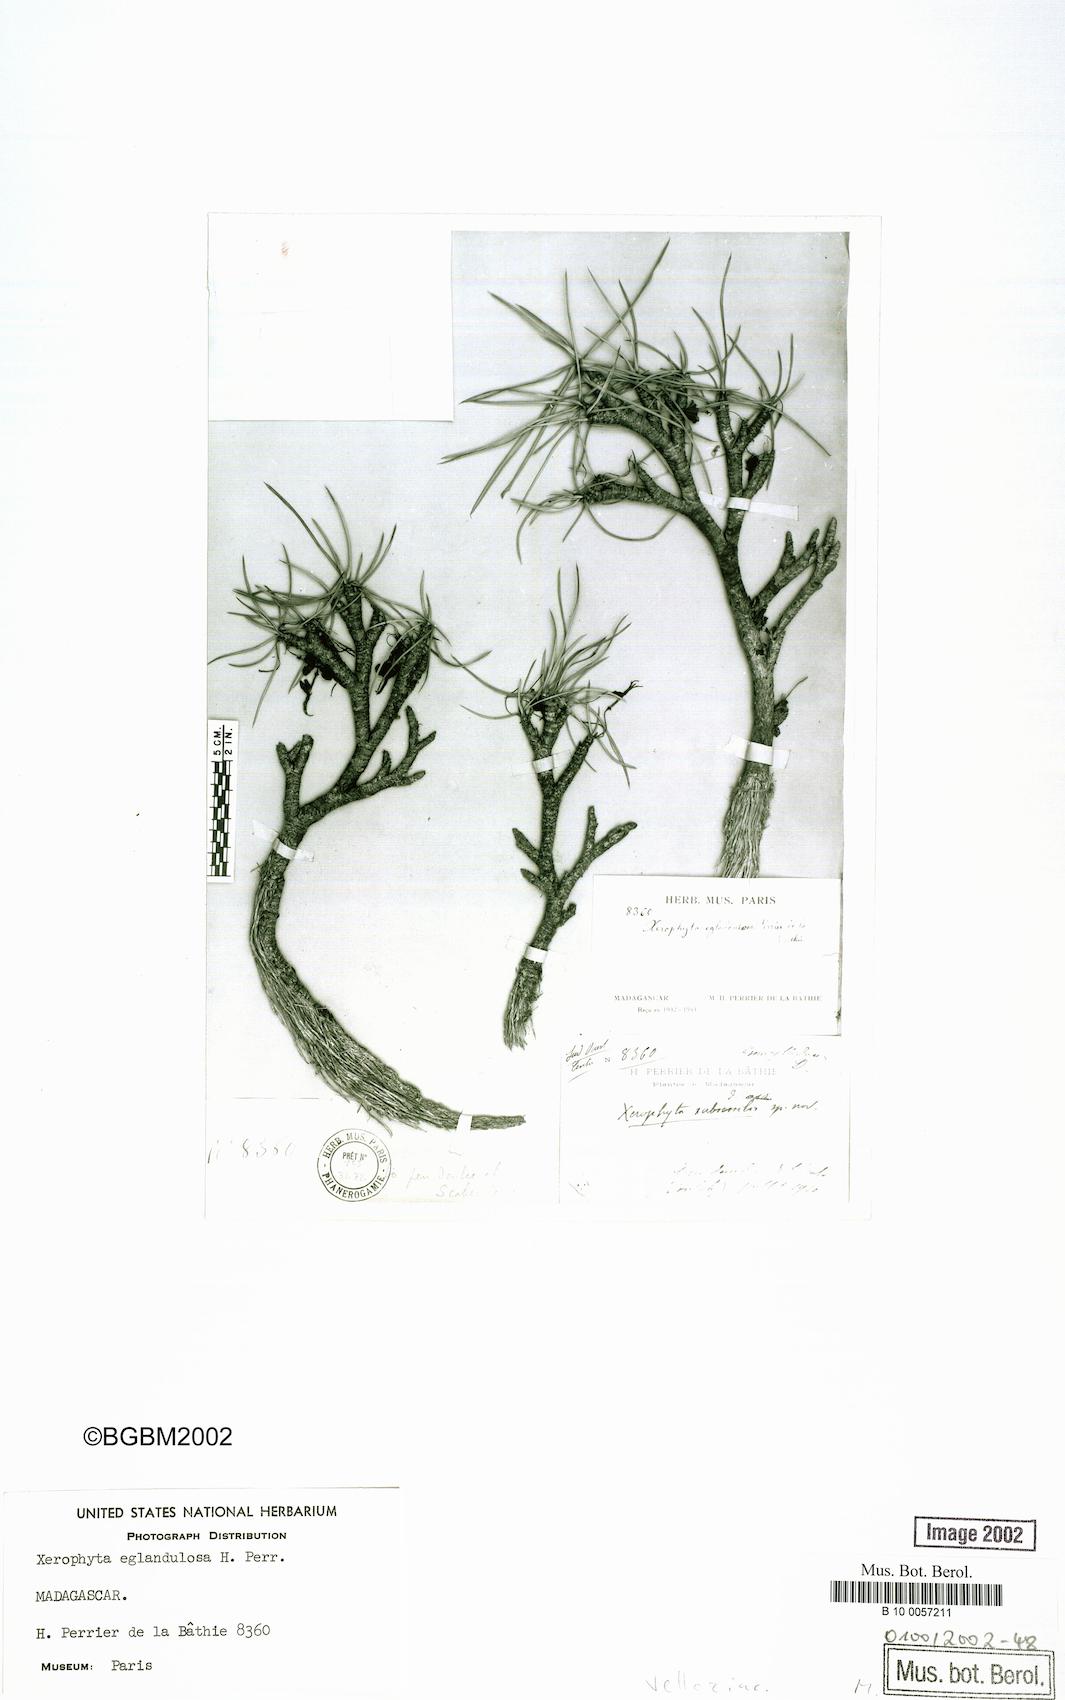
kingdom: Plantae
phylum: Tracheophyta
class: Liliopsida
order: Pandanales
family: Velloziaceae
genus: Xerophyta
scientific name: Xerophyta eglandulosa
